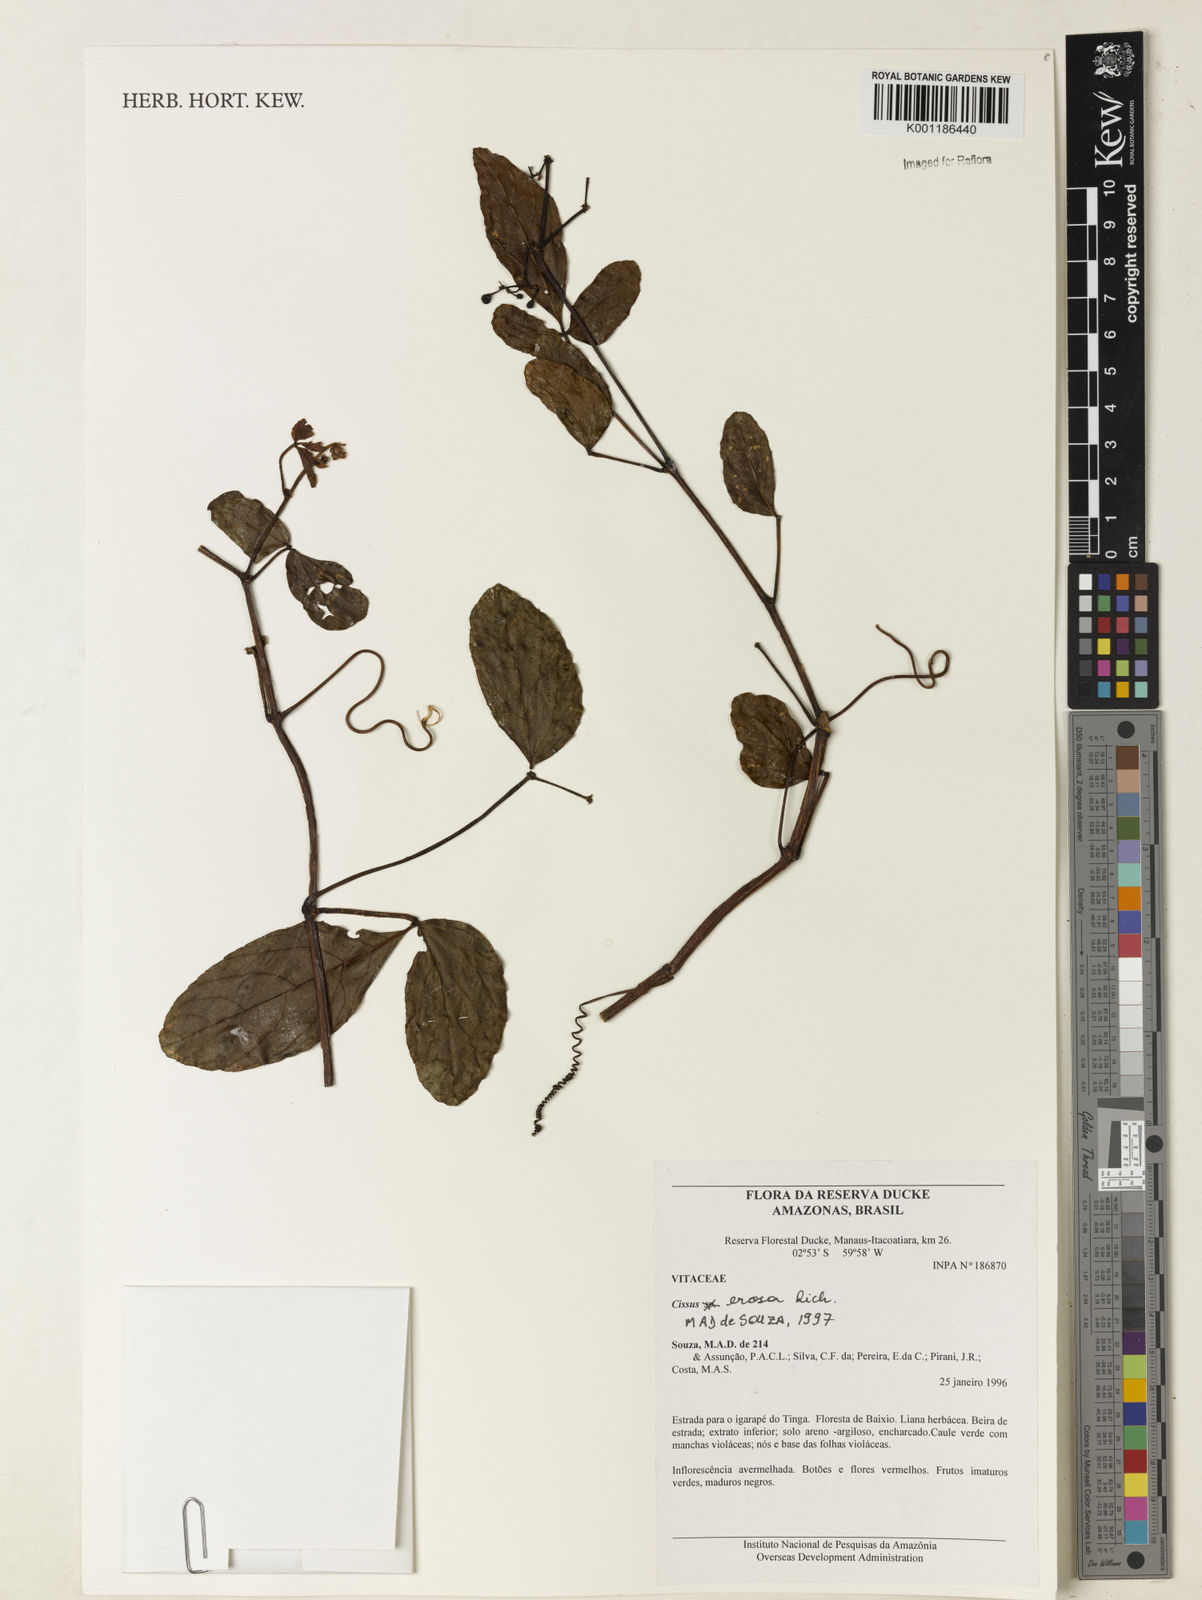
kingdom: Plantae
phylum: Tracheophyta
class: Magnoliopsida
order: Vitales
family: Vitaceae
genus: Cissus
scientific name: Cissus erosa
